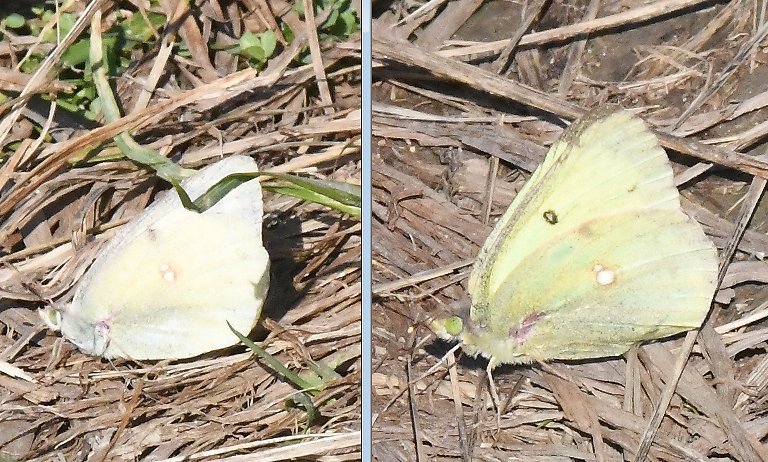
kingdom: Animalia
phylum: Arthropoda
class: Insecta
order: Lepidoptera
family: Pieridae
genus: Colias
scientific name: Colias philodice
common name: Clouded Sulphur
